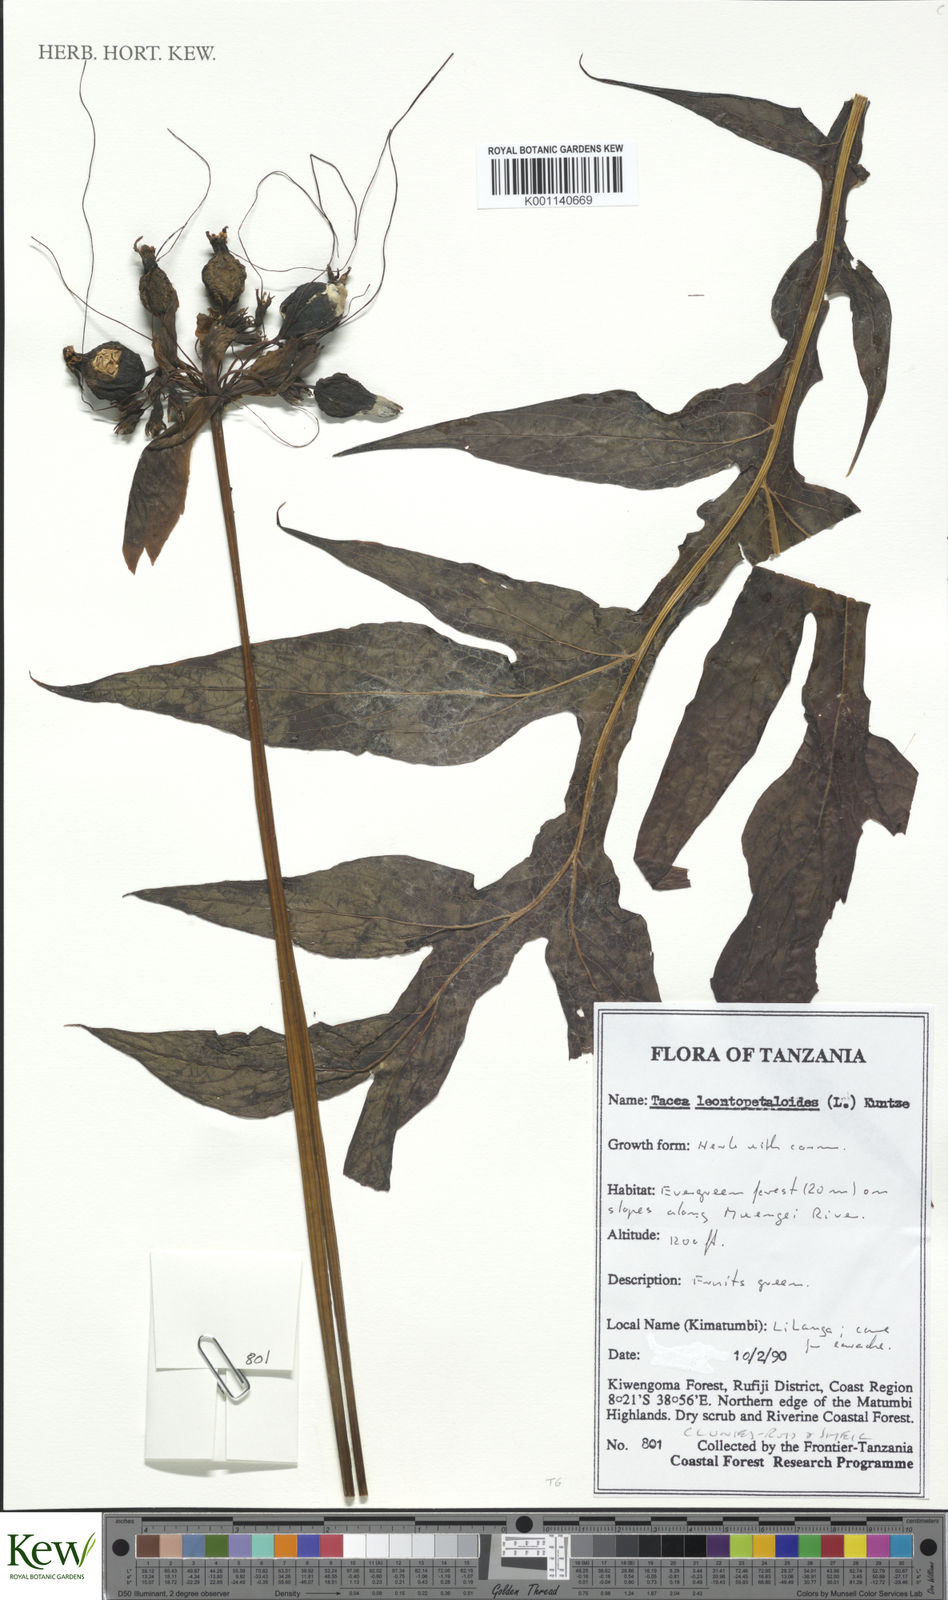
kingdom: Plantae
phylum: Tracheophyta
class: Liliopsida
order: Dioscoreales
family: Dioscoreaceae
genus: Tacca
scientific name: Tacca leontopetaloides
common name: Arrowroot
